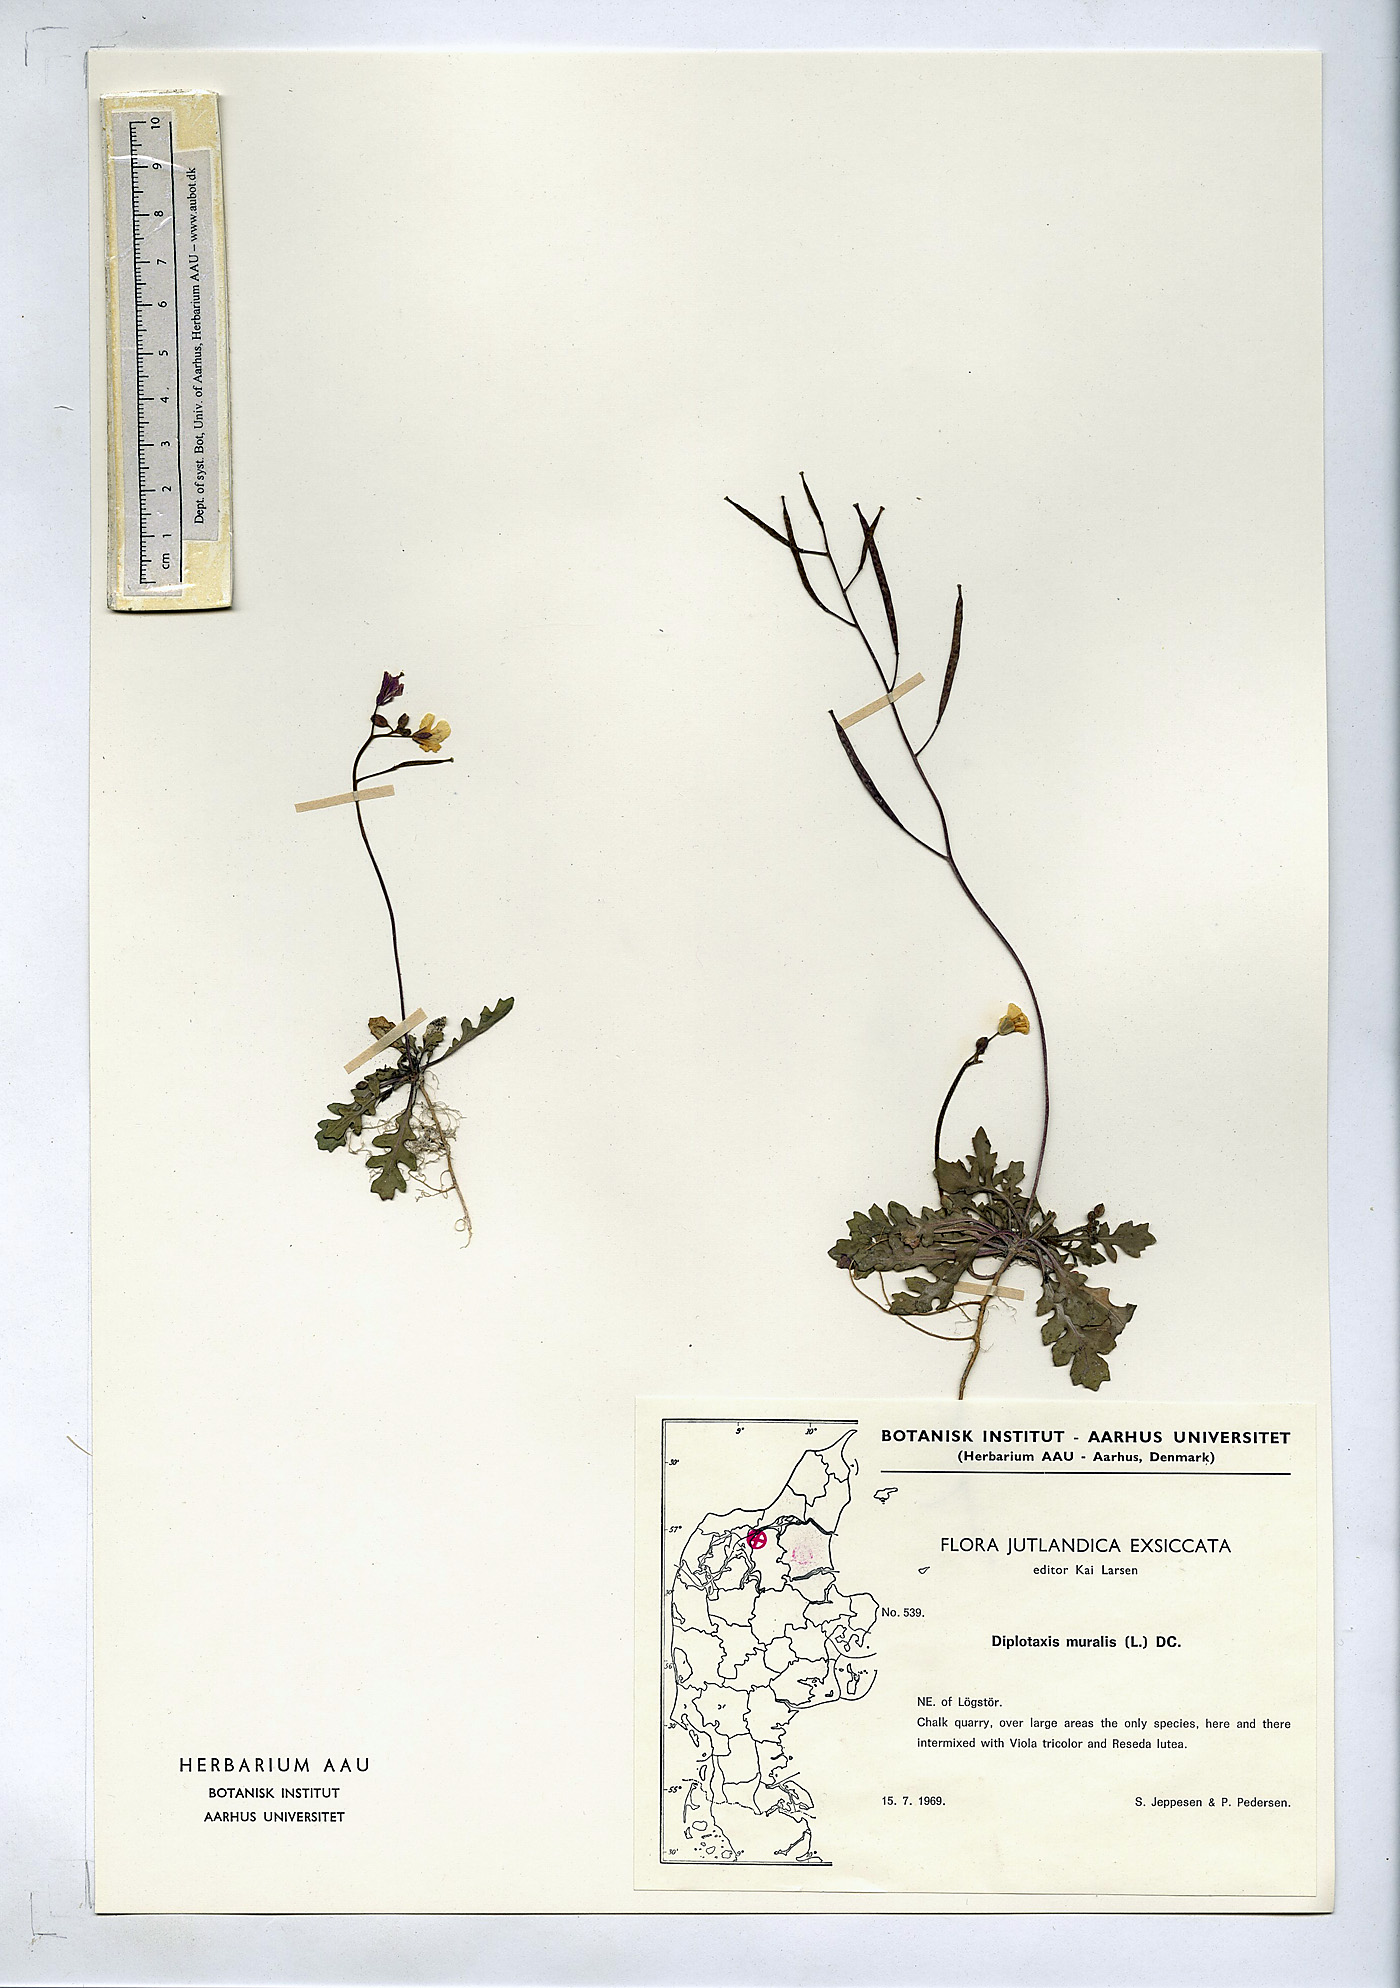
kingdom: Plantae
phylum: Tracheophyta
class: Magnoliopsida
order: Brassicales
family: Brassicaceae
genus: Diplotaxis
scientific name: Diplotaxis muralis
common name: Annual wall-rocket
